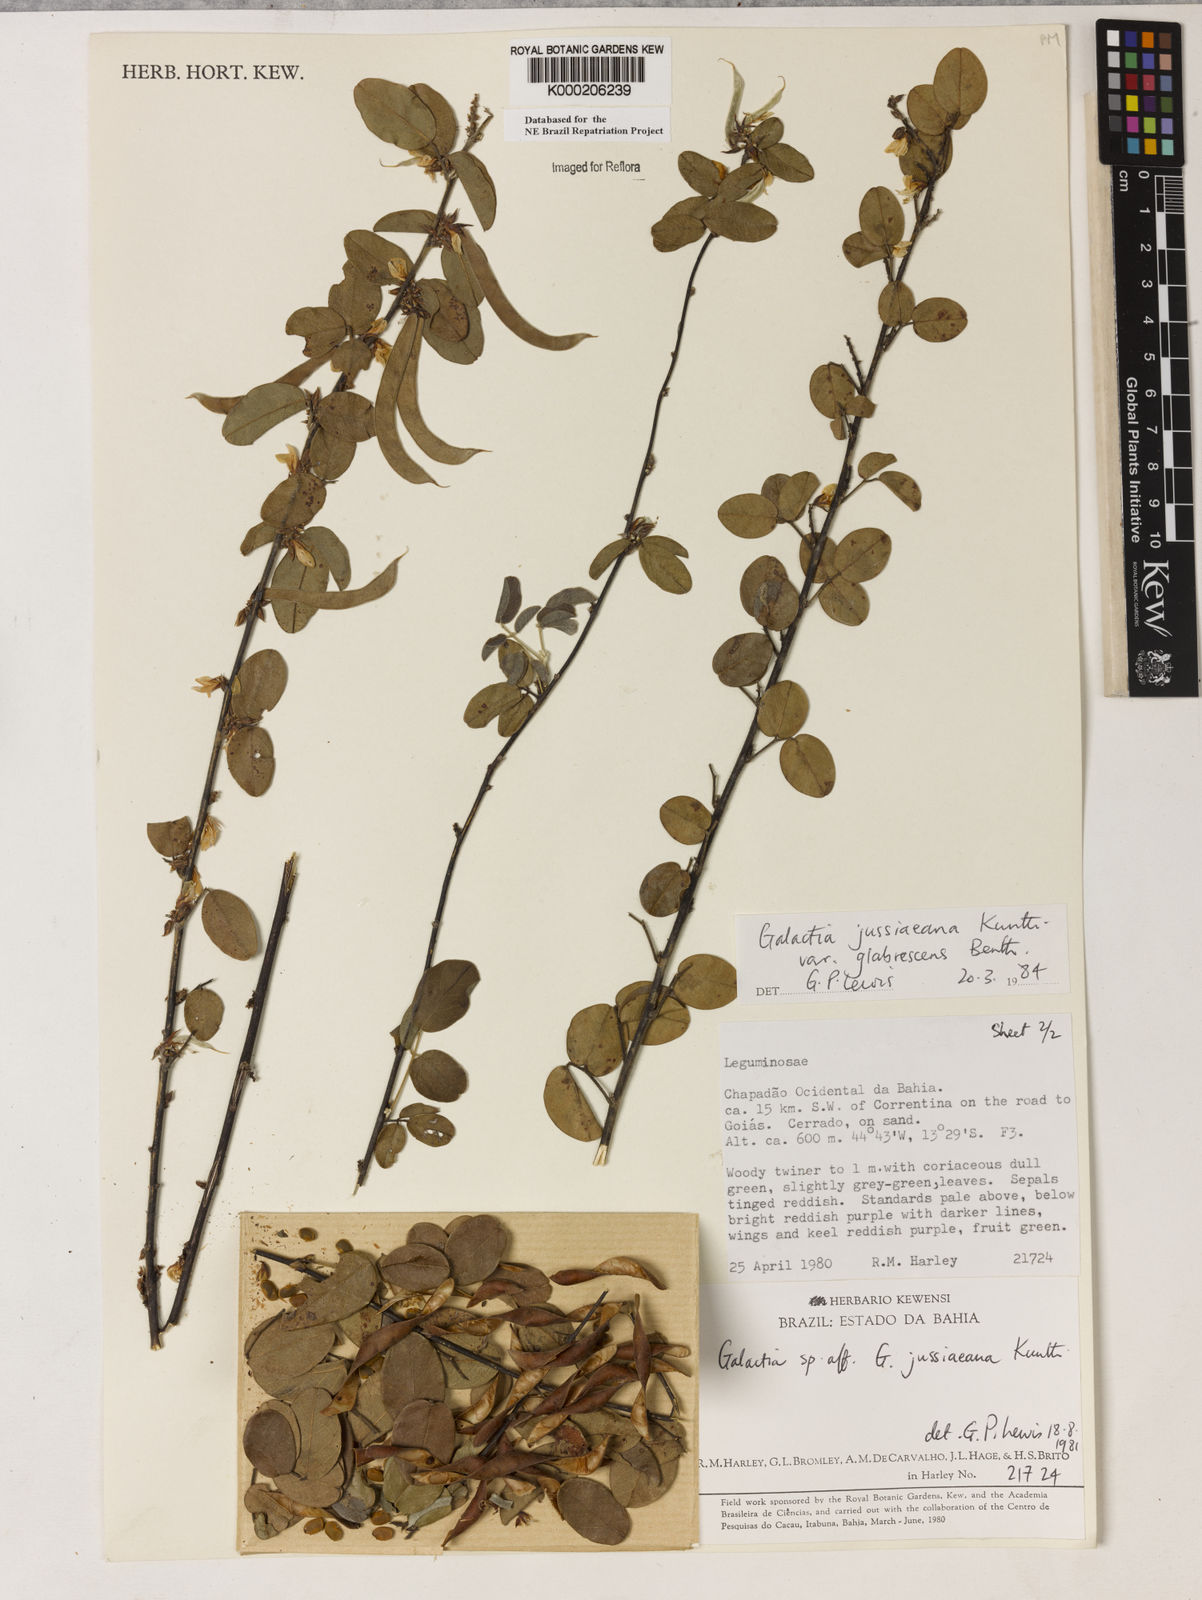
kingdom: Plantae
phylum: Tracheophyta
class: Magnoliopsida
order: Fabales
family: Fabaceae
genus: Galactia
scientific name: Galactia jussiaeana
